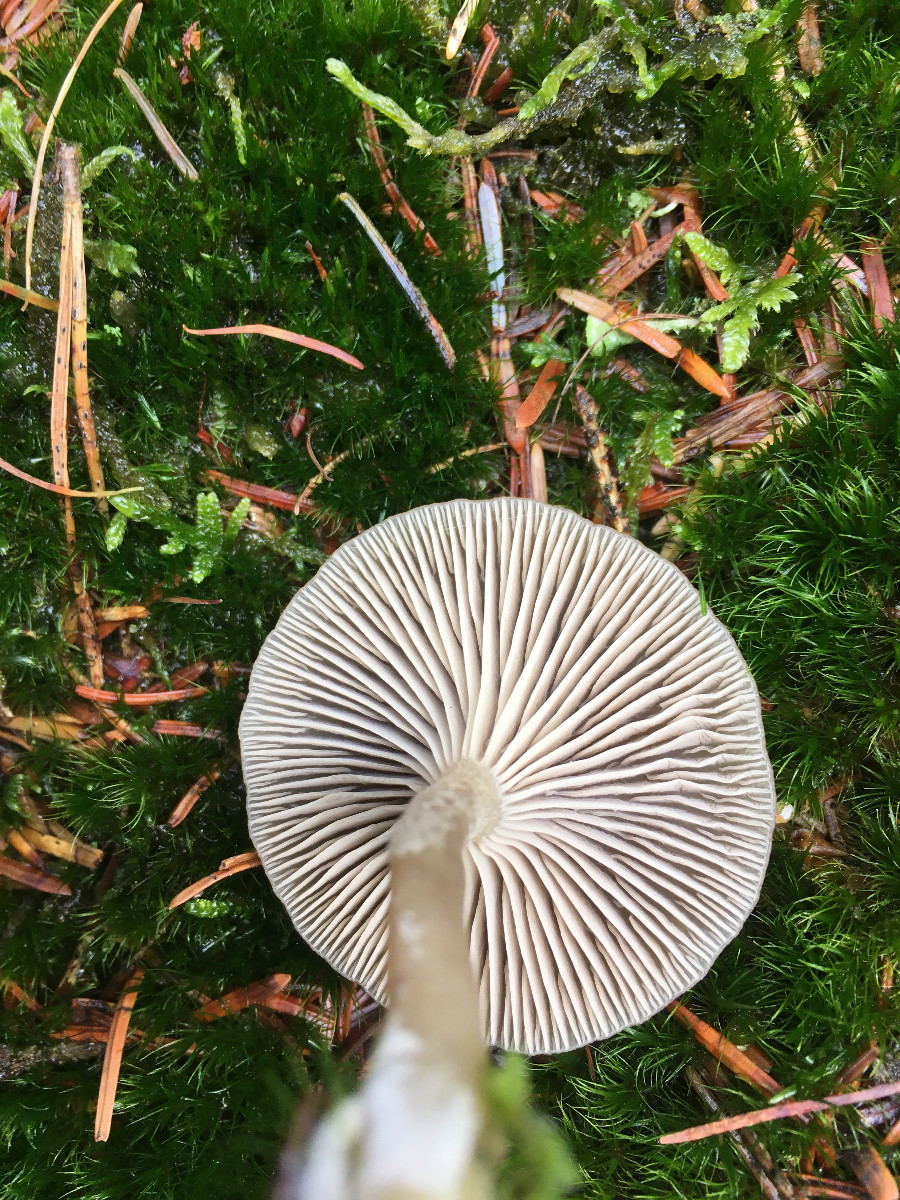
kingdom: Fungi
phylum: Basidiomycota
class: Agaricomycetes
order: Agaricales
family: Tricholomataceae
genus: Clitocybe
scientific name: Clitocybe
